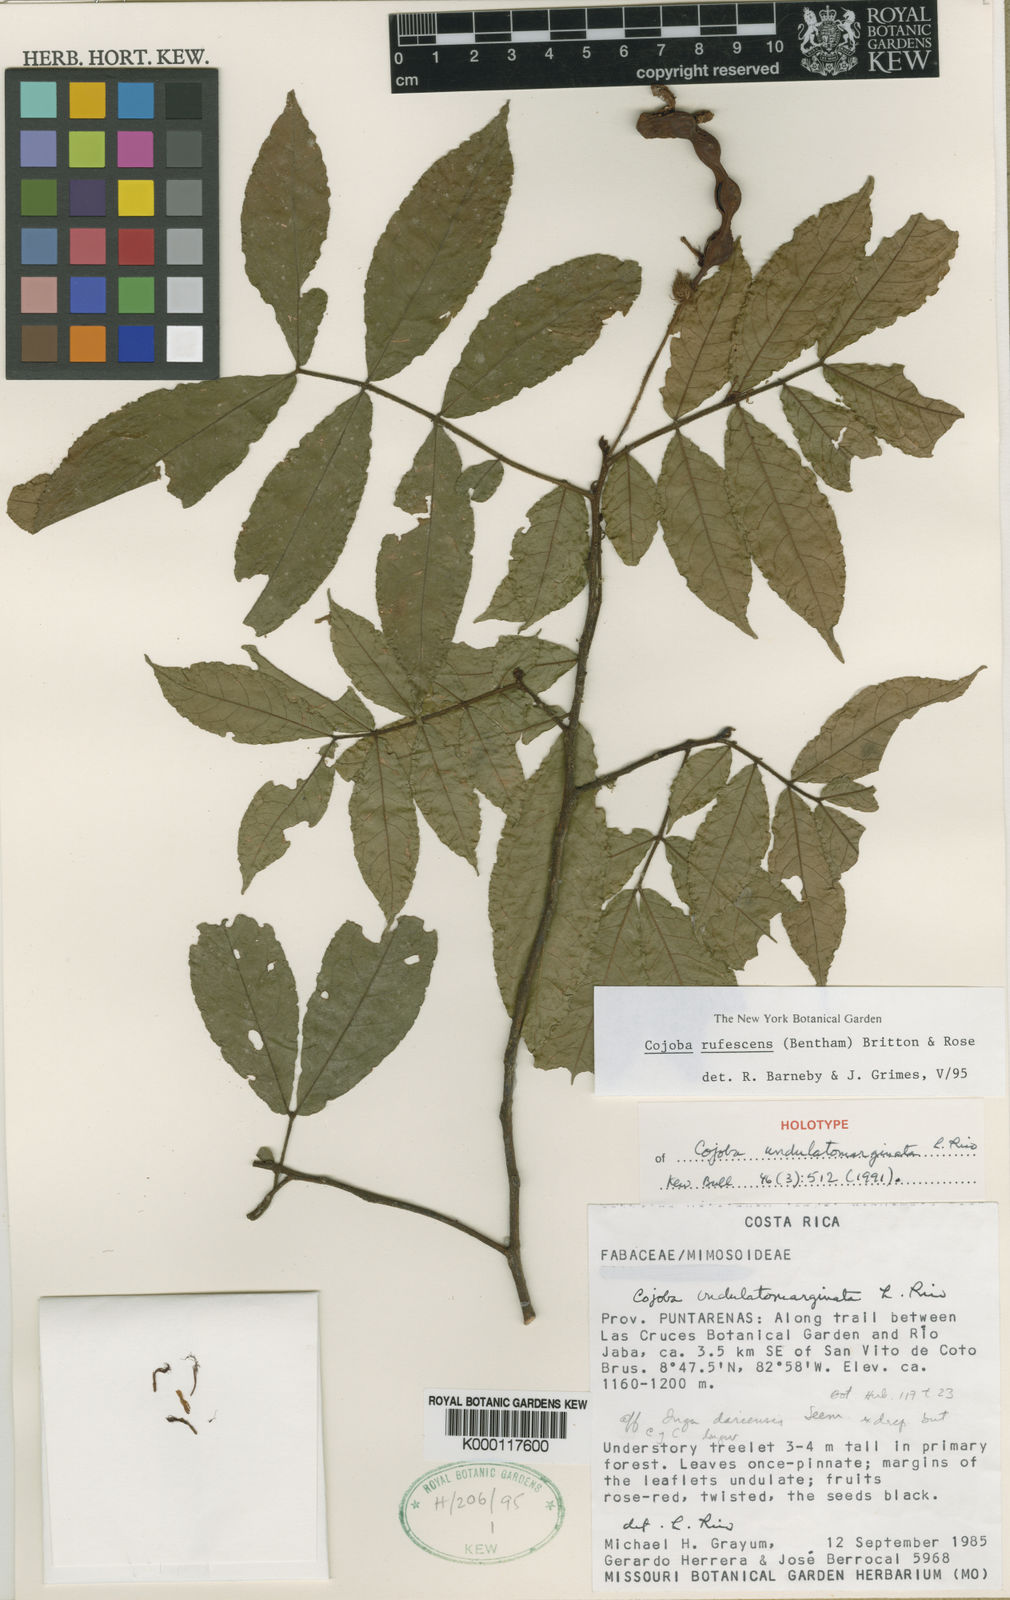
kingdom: Plantae
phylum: Tracheophyta
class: Magnoliopsida
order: Fabales
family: Fabaceae
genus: Cojoba
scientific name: Cojoba rufescens
